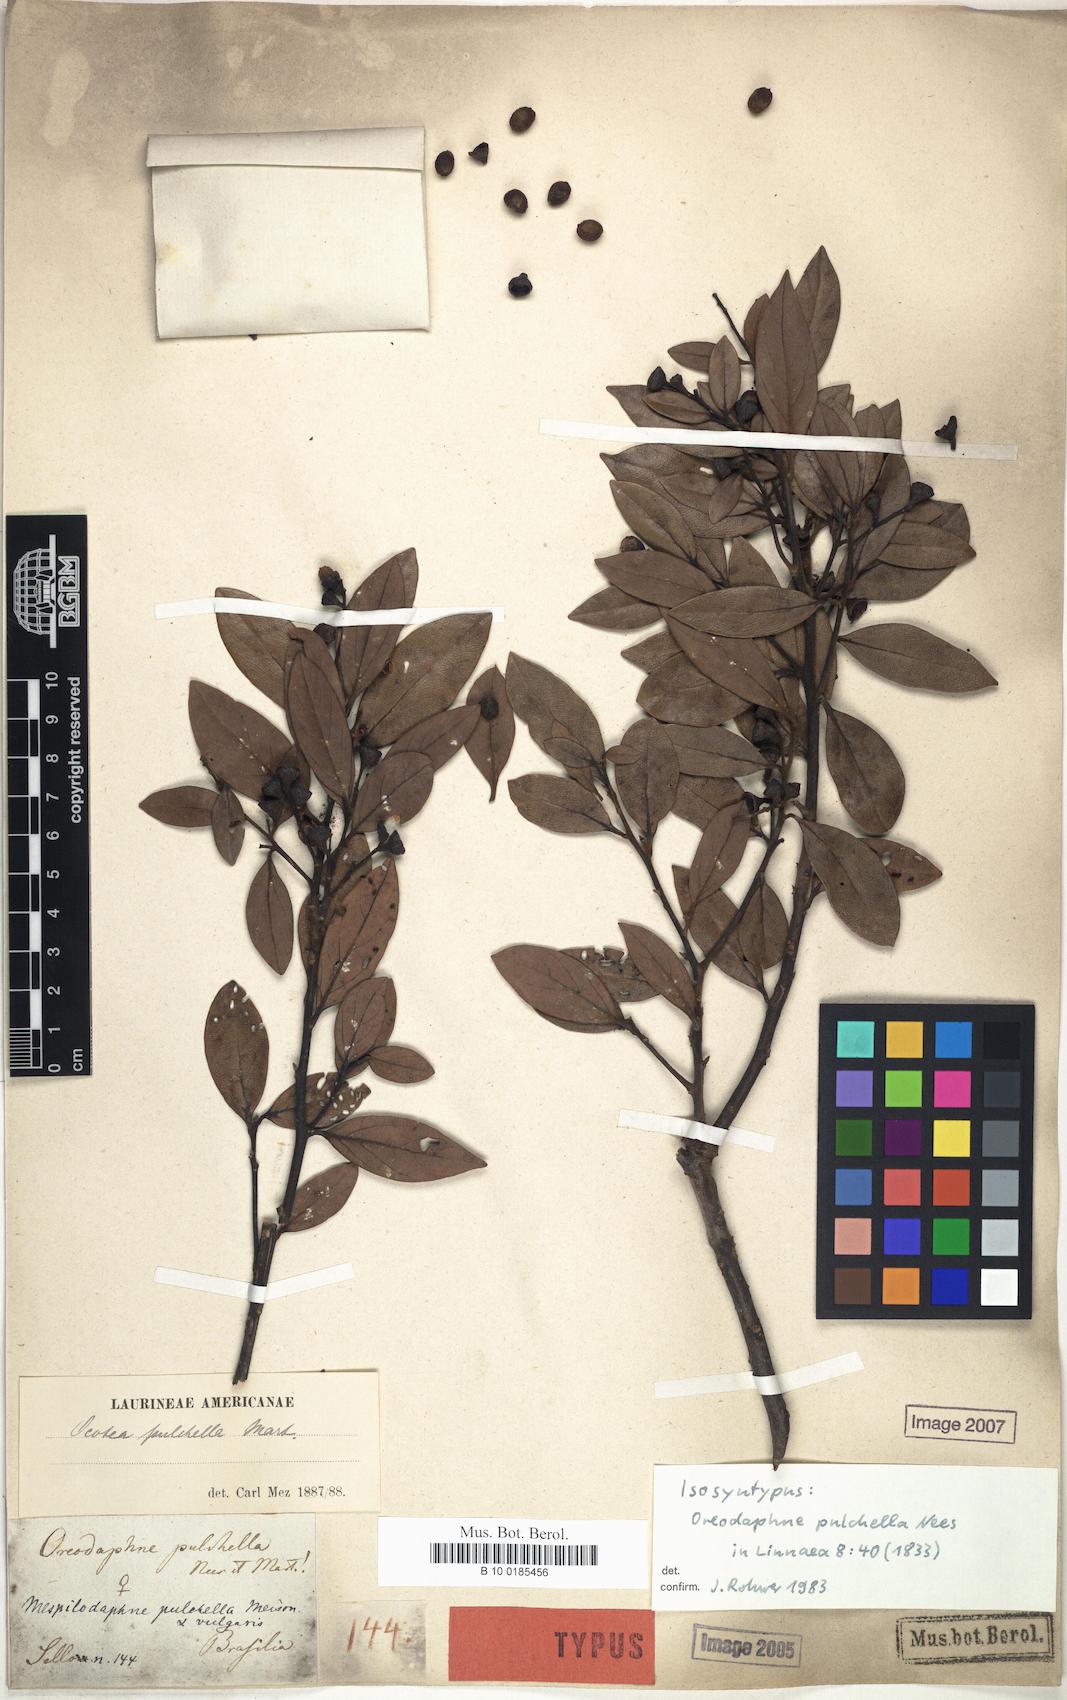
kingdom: Plantae
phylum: Tracheophyta
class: Magnoliopsida
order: Laurales
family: Lauraceae
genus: Mespilodaphne
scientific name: Mespilodaphne pulchella
